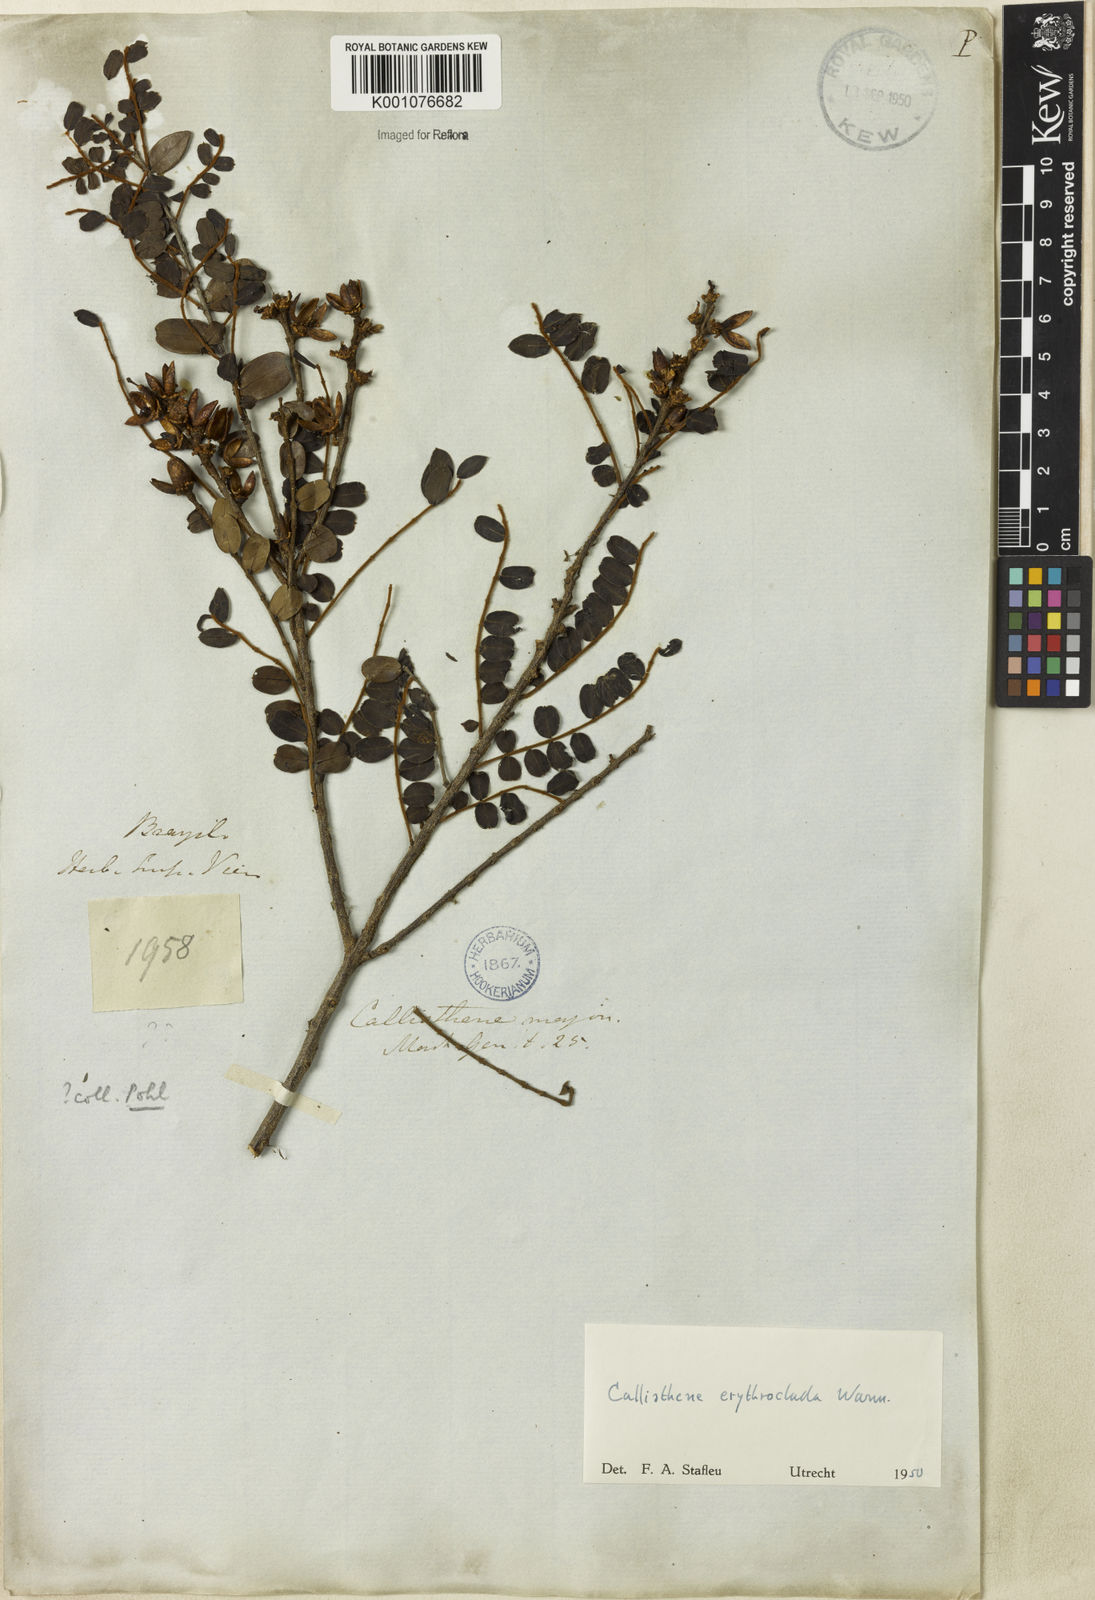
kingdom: Plantae
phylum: Tracheophyta
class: Magnoliopsida
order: Myrtales
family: Vochysiaceae
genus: Callisthene
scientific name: Callisthene erythroclada
